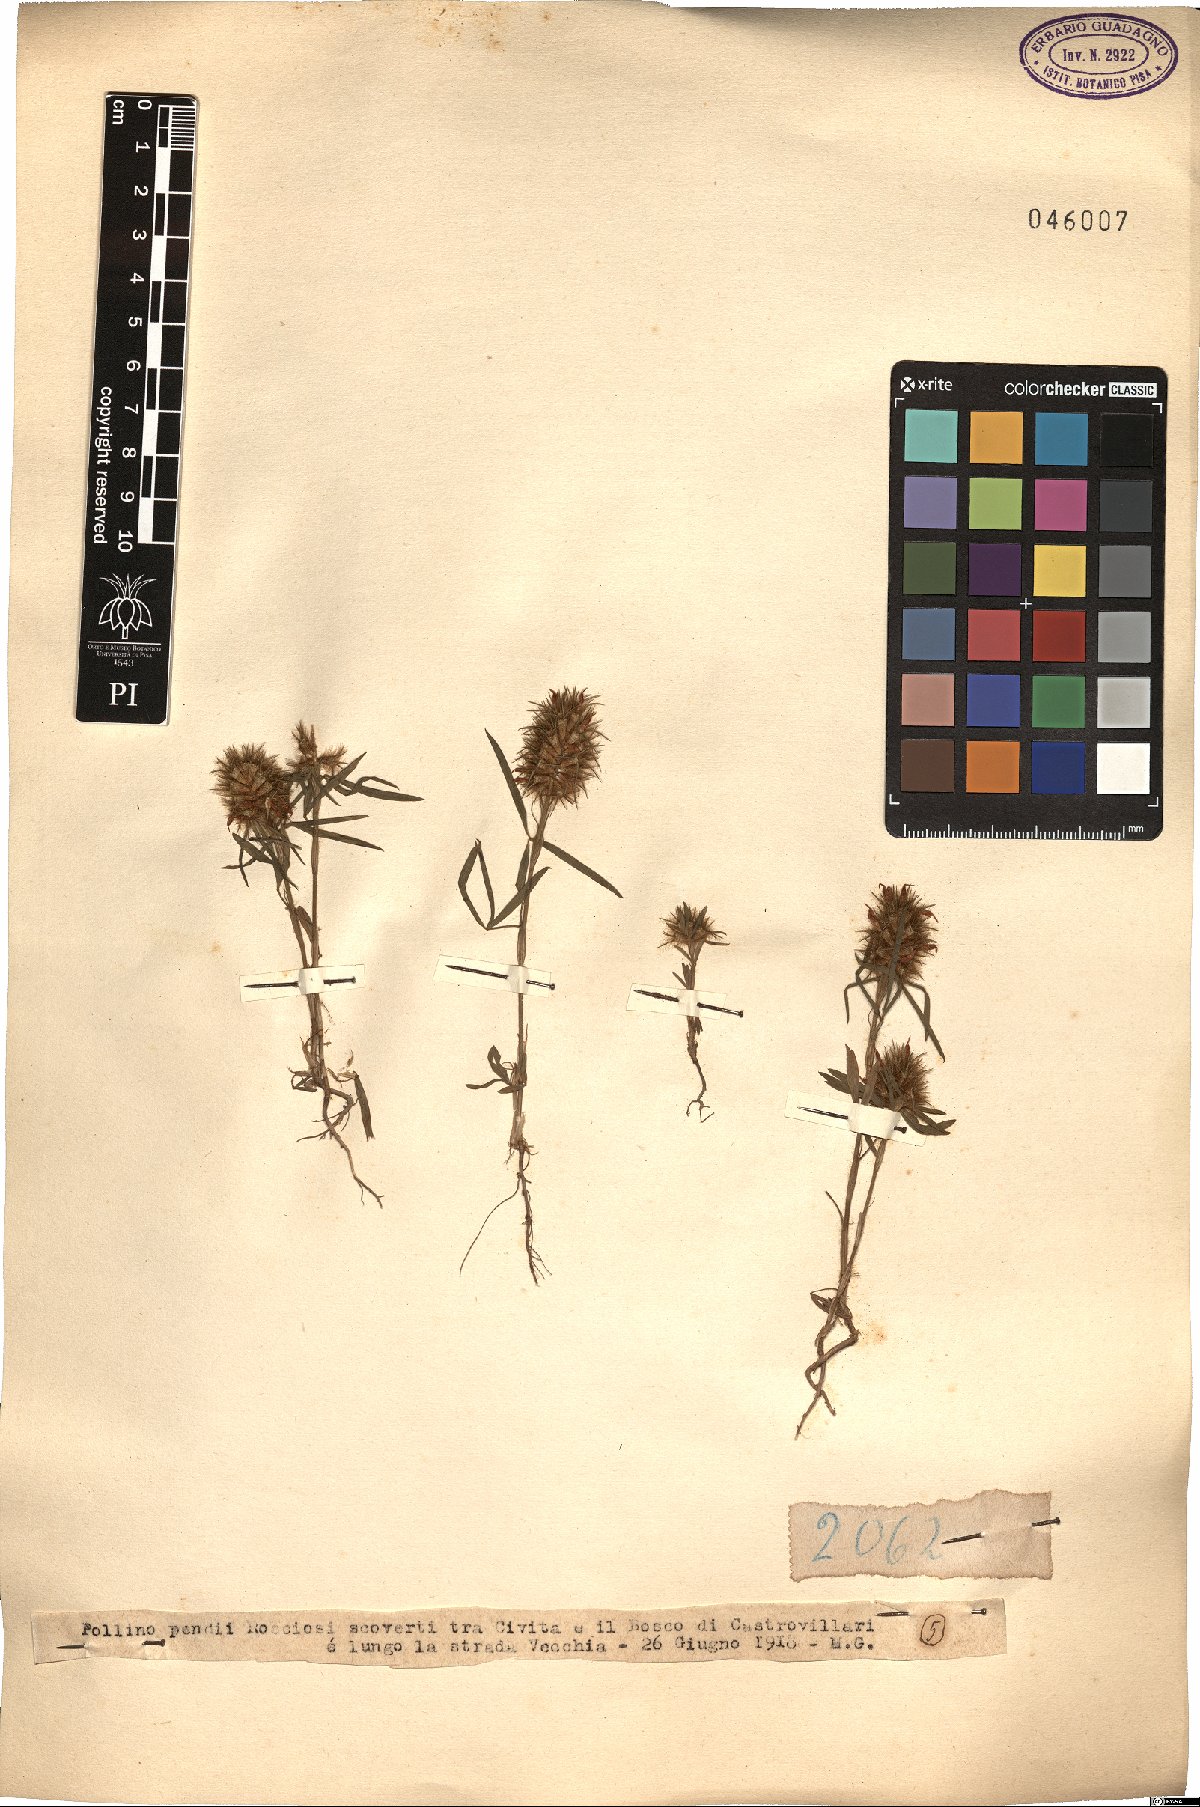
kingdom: Plantae
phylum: Tracheophyta
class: Magnoliopsida
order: Fabales
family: Fabaceae
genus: Trifolium
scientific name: Trifolium
